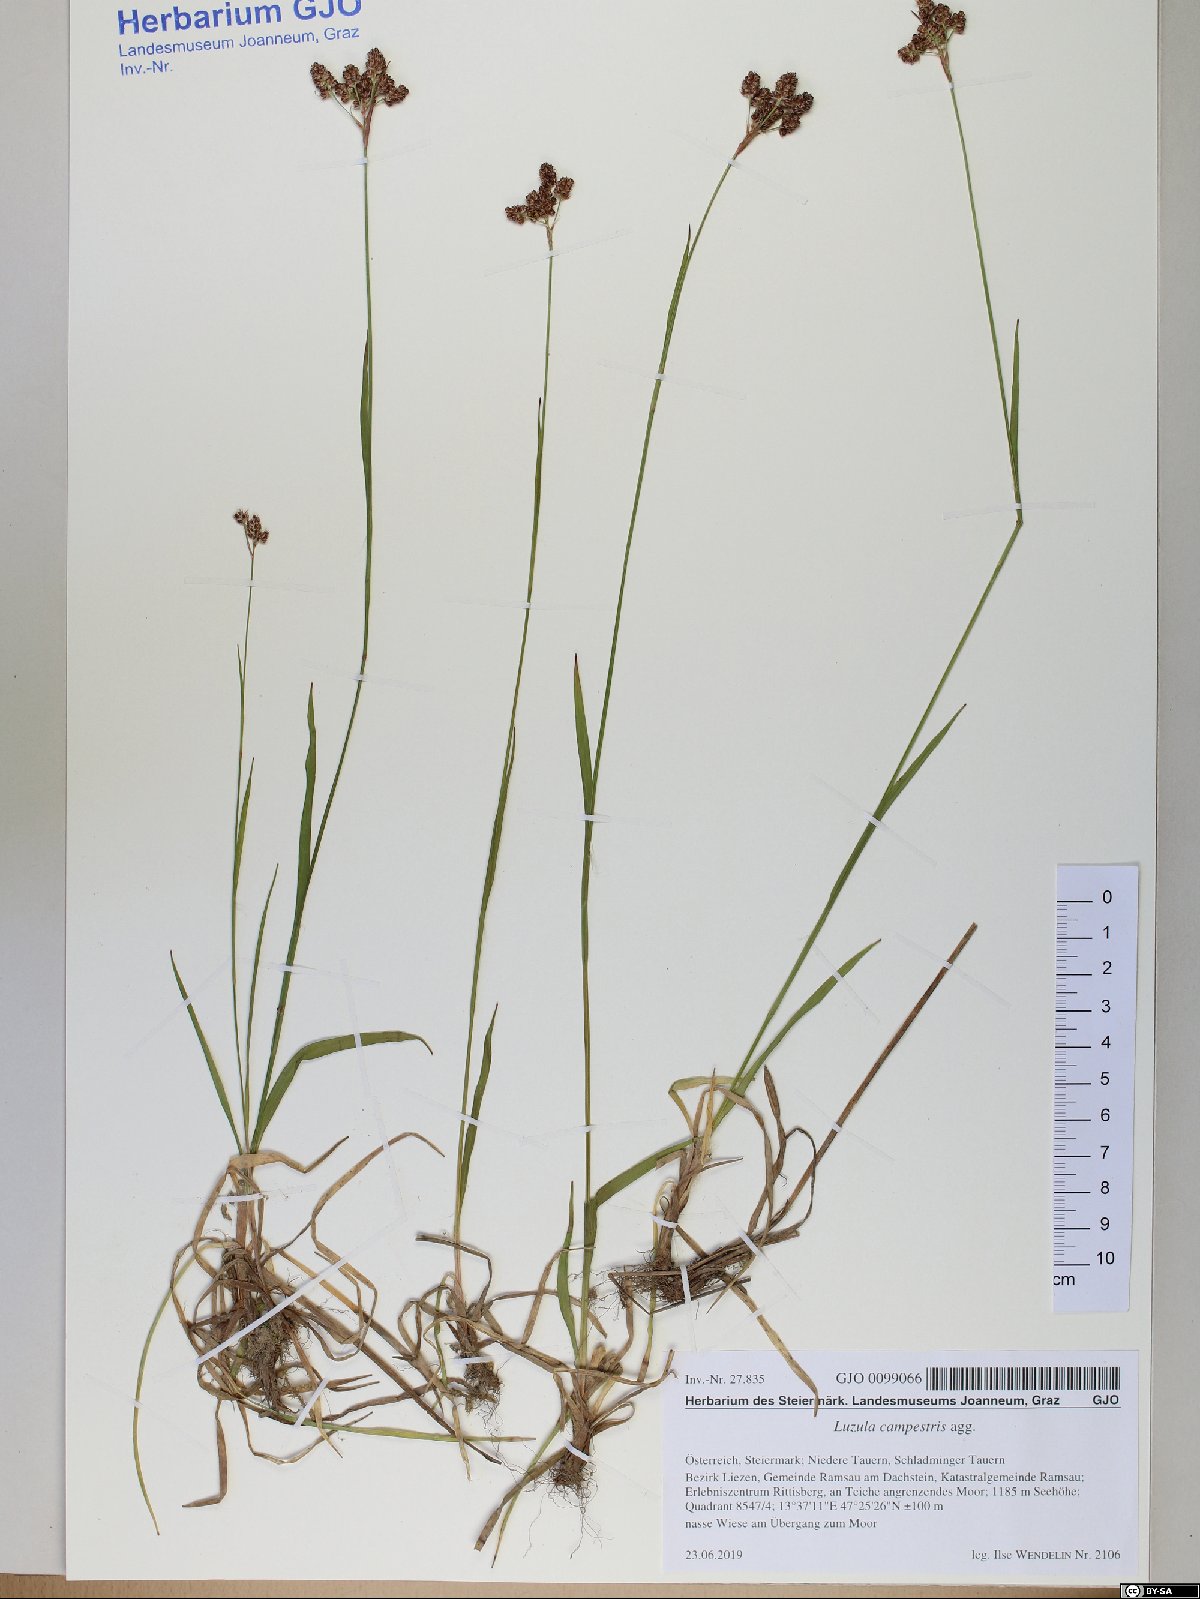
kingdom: Plantae
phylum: Tracheophyta
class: Liliopsida
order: Poales
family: Juncaceae
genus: Luzula
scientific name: Luzula campestris
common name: Field wood-rush
